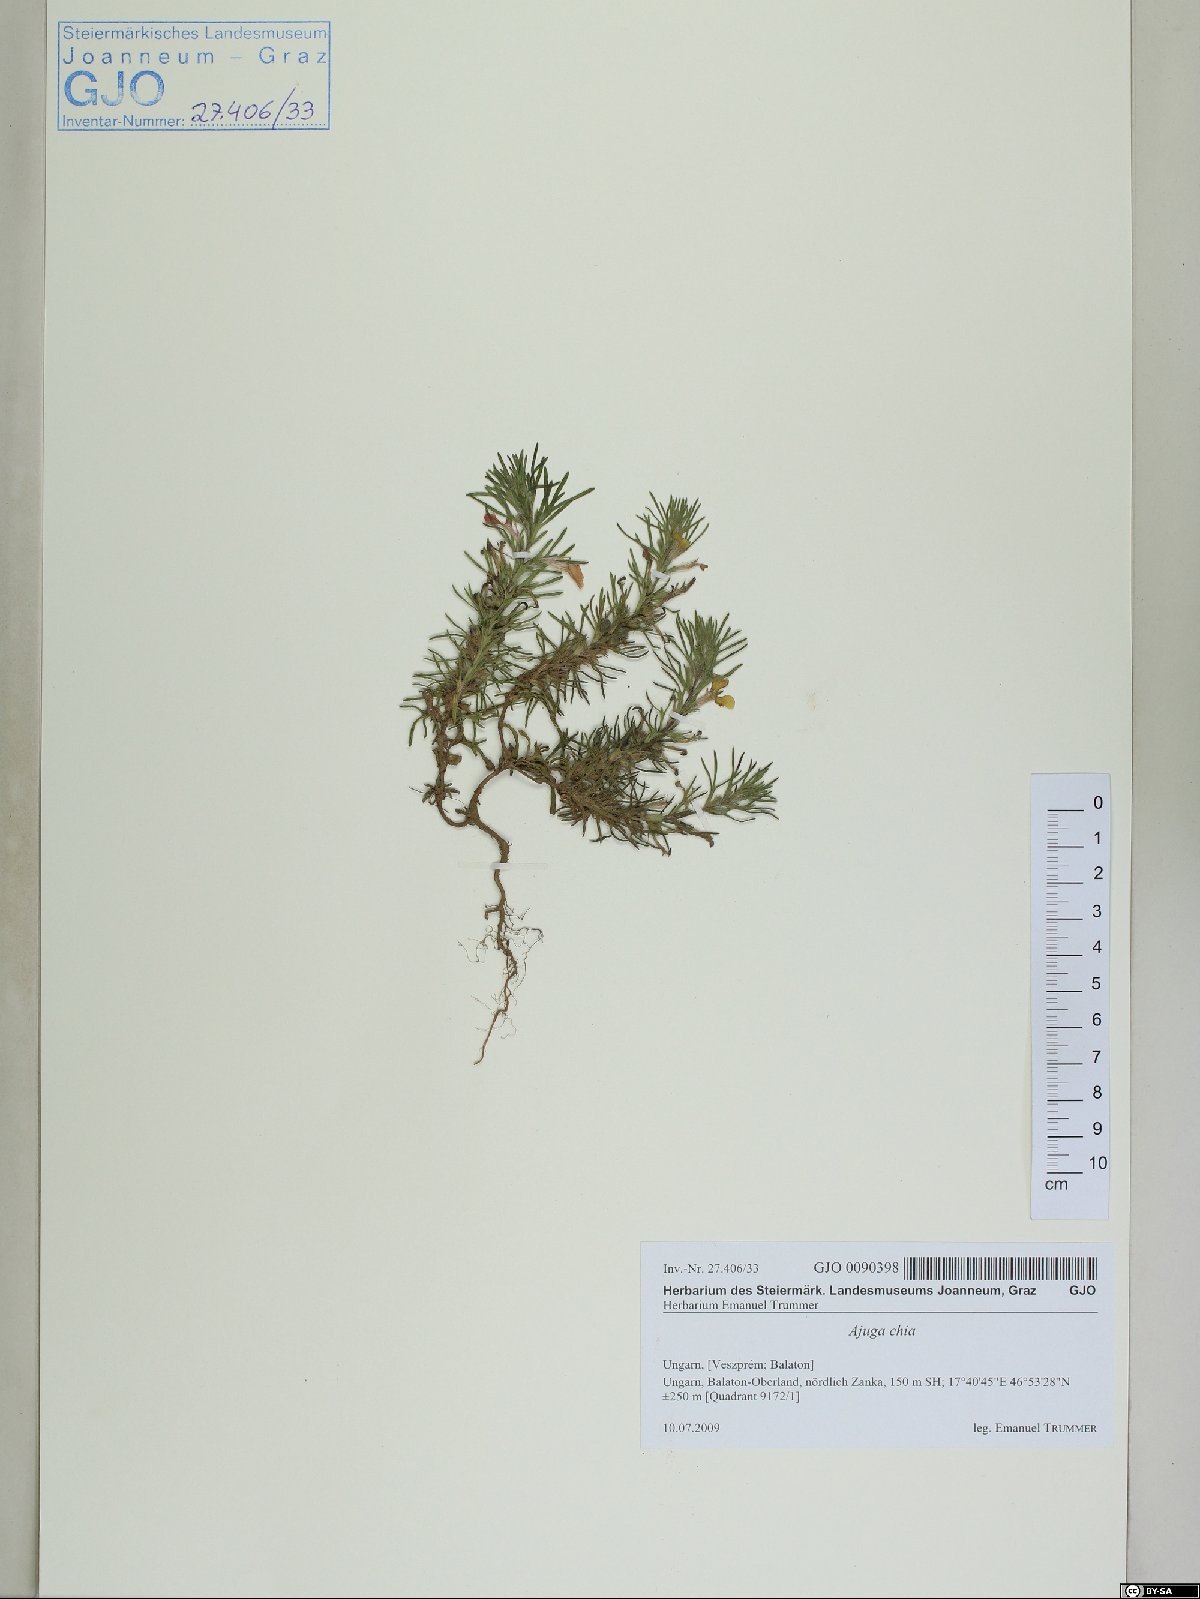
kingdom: Plantae
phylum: Tracheophyta
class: Magnoliopsida
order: Lamiales
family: Lamiaceae
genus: Ajuga
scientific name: Ajuga chamaepitys
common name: Ground-pine
